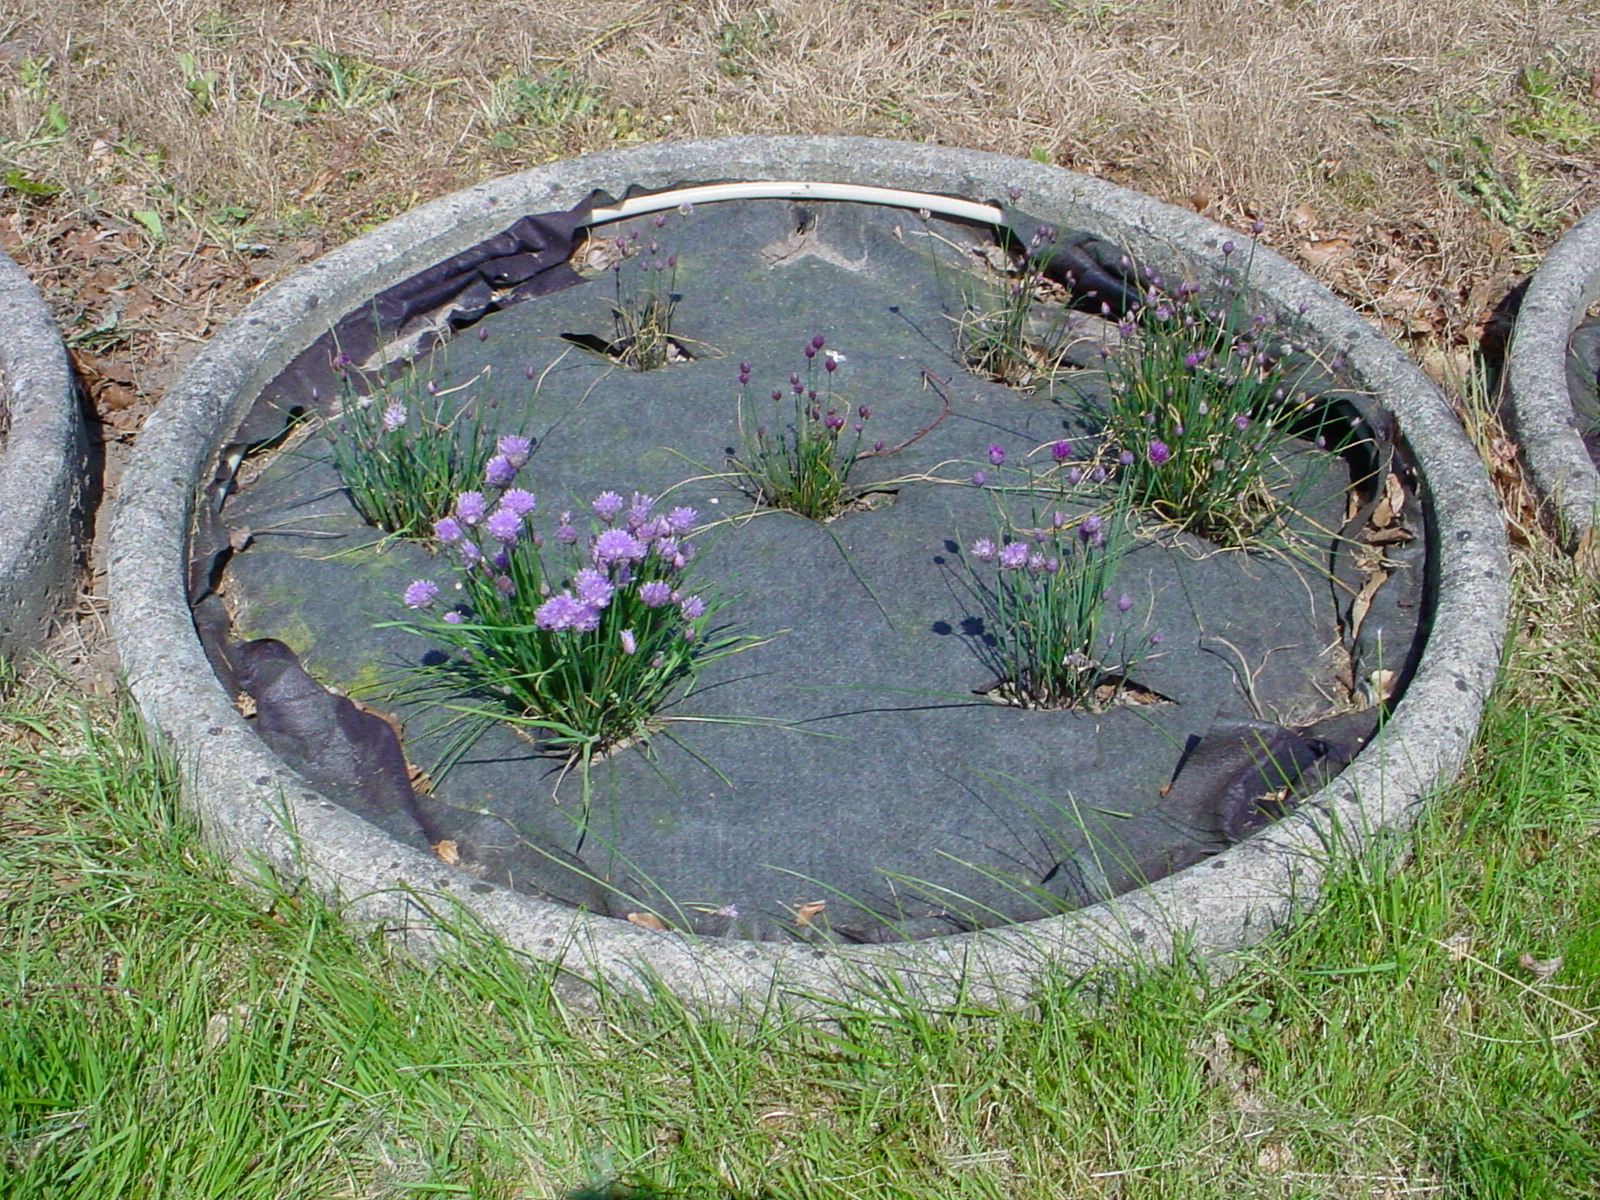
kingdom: Plantae
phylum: Tracheophyta
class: Liliopsida
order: Asparagales
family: Amaryllidaceae
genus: Allium
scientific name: Allium schoenoprasum
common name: Chives
